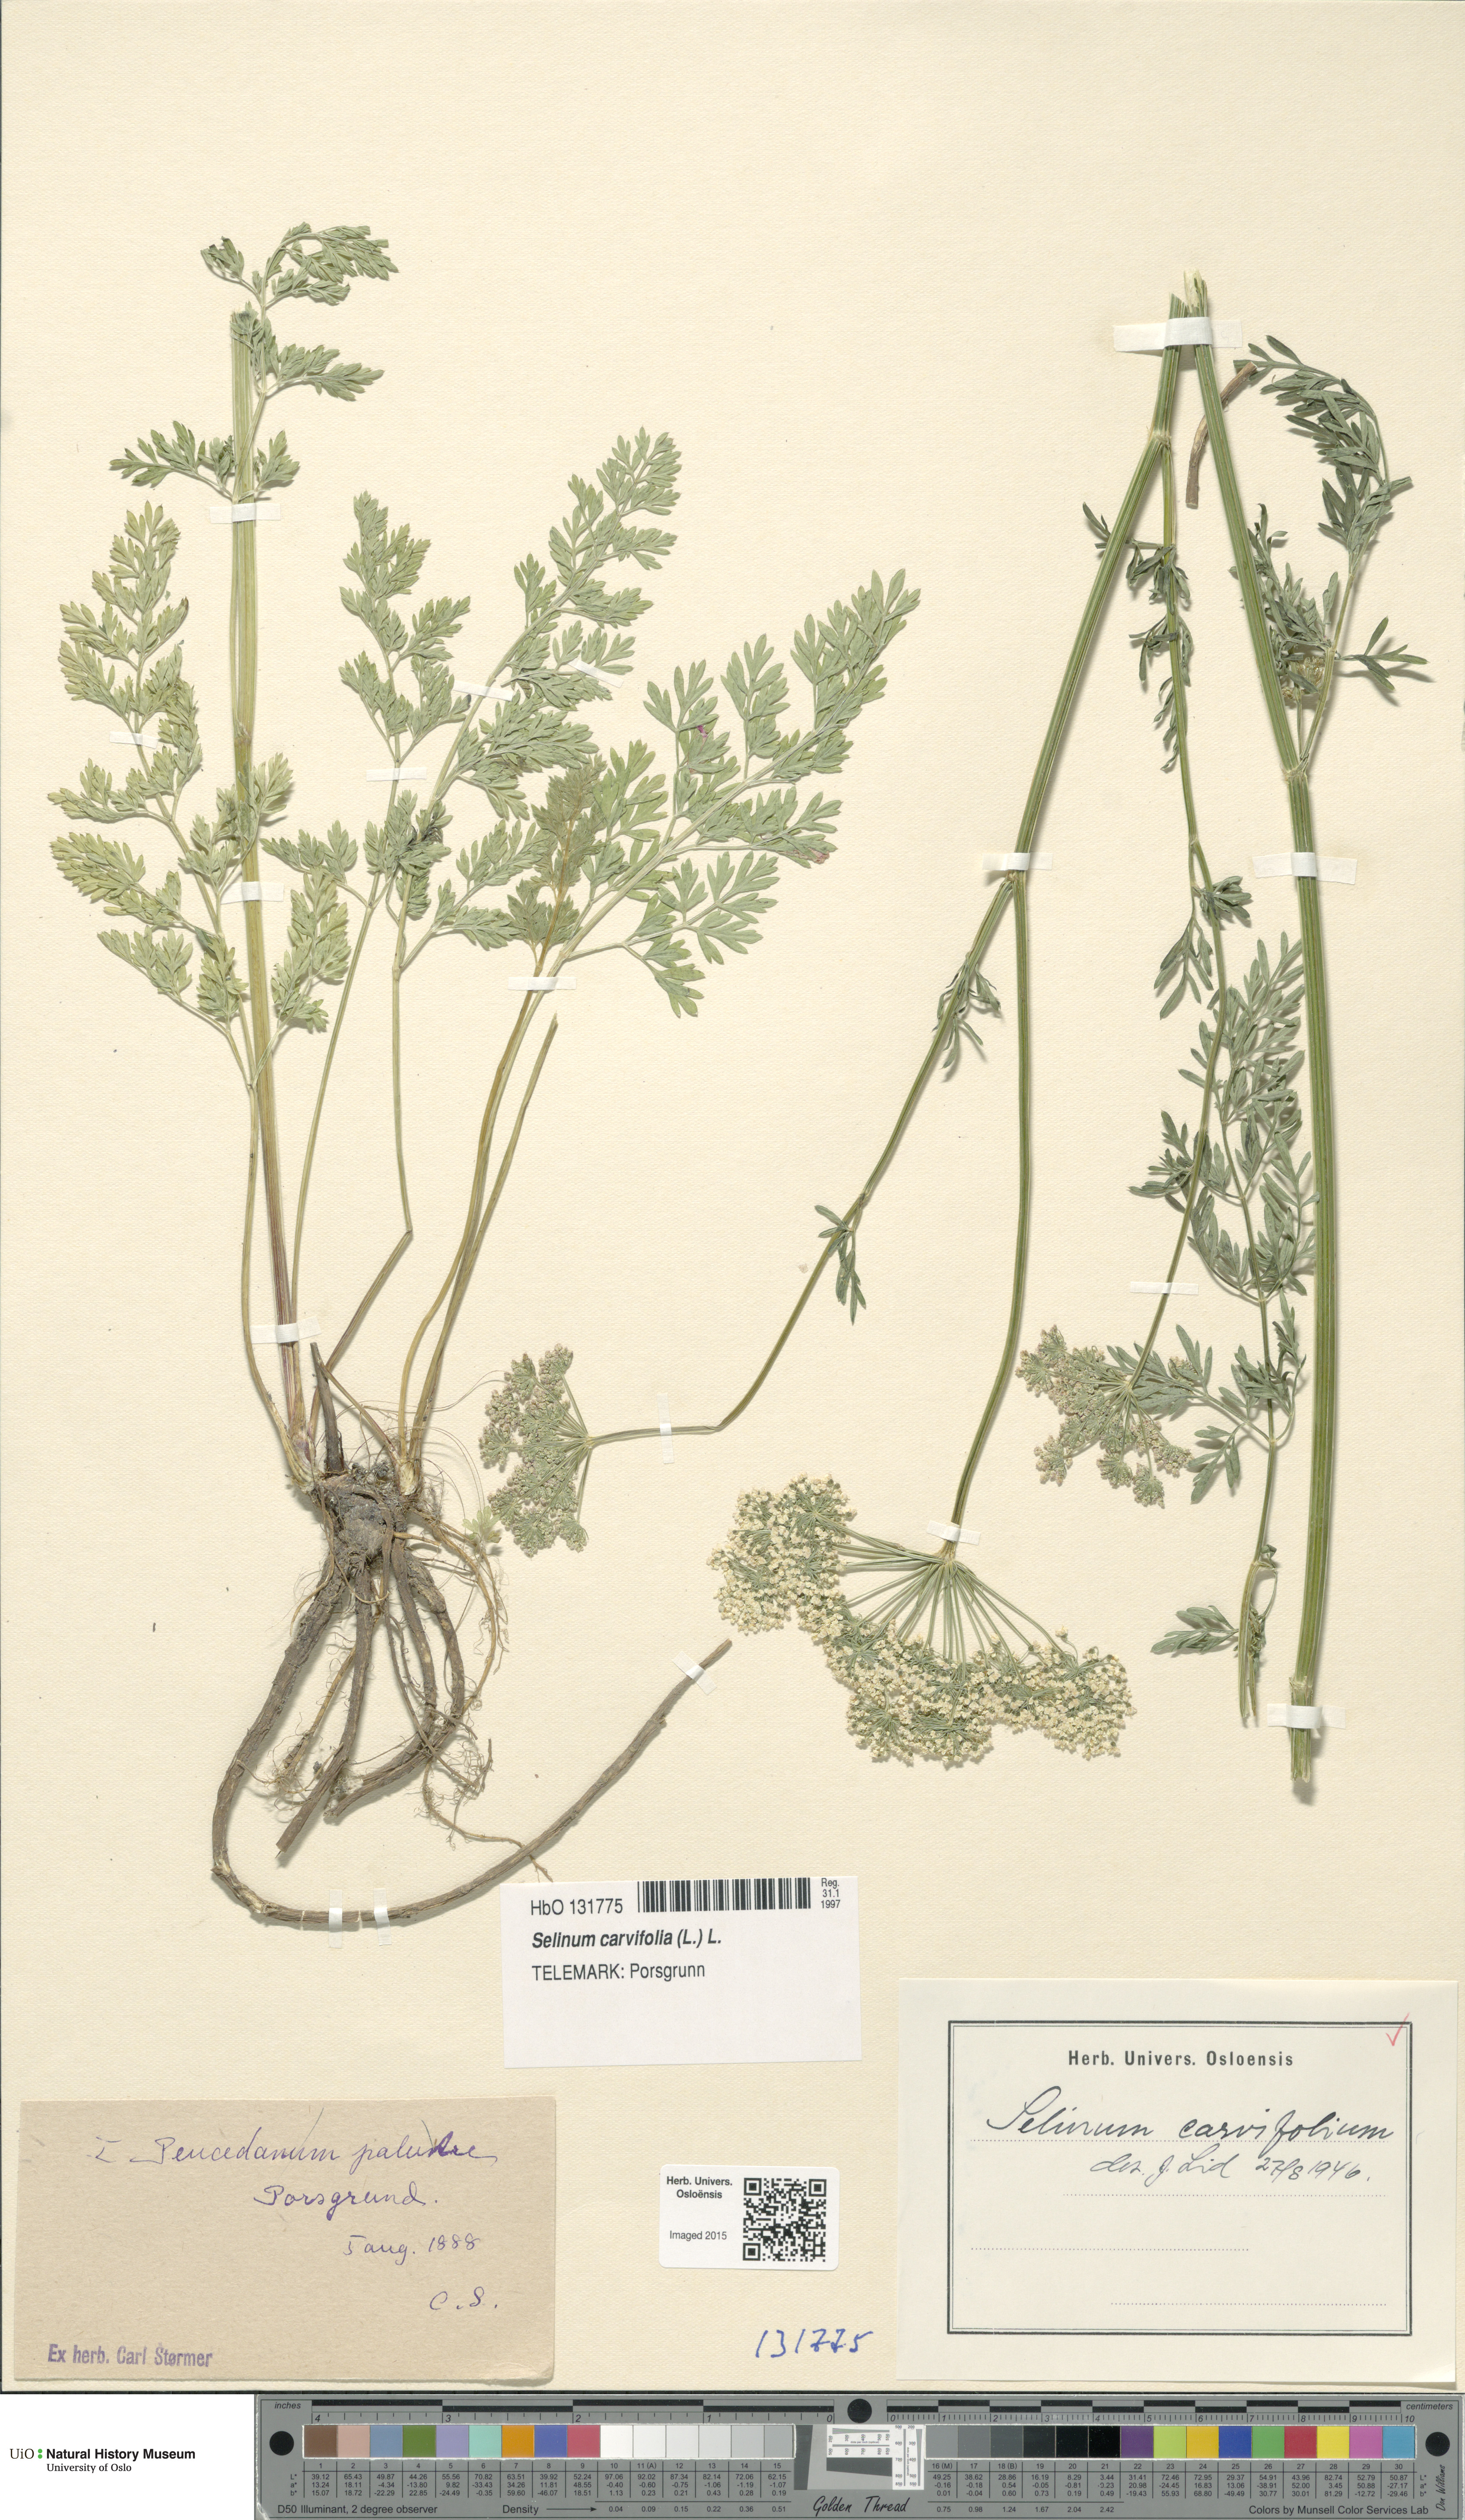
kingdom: Plantae
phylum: Tracheophyta
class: Magnoliopsida
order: Apiales
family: Apiaceae
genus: Selinum
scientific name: Selinum carvifolia
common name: Cambridge milk-parsley
